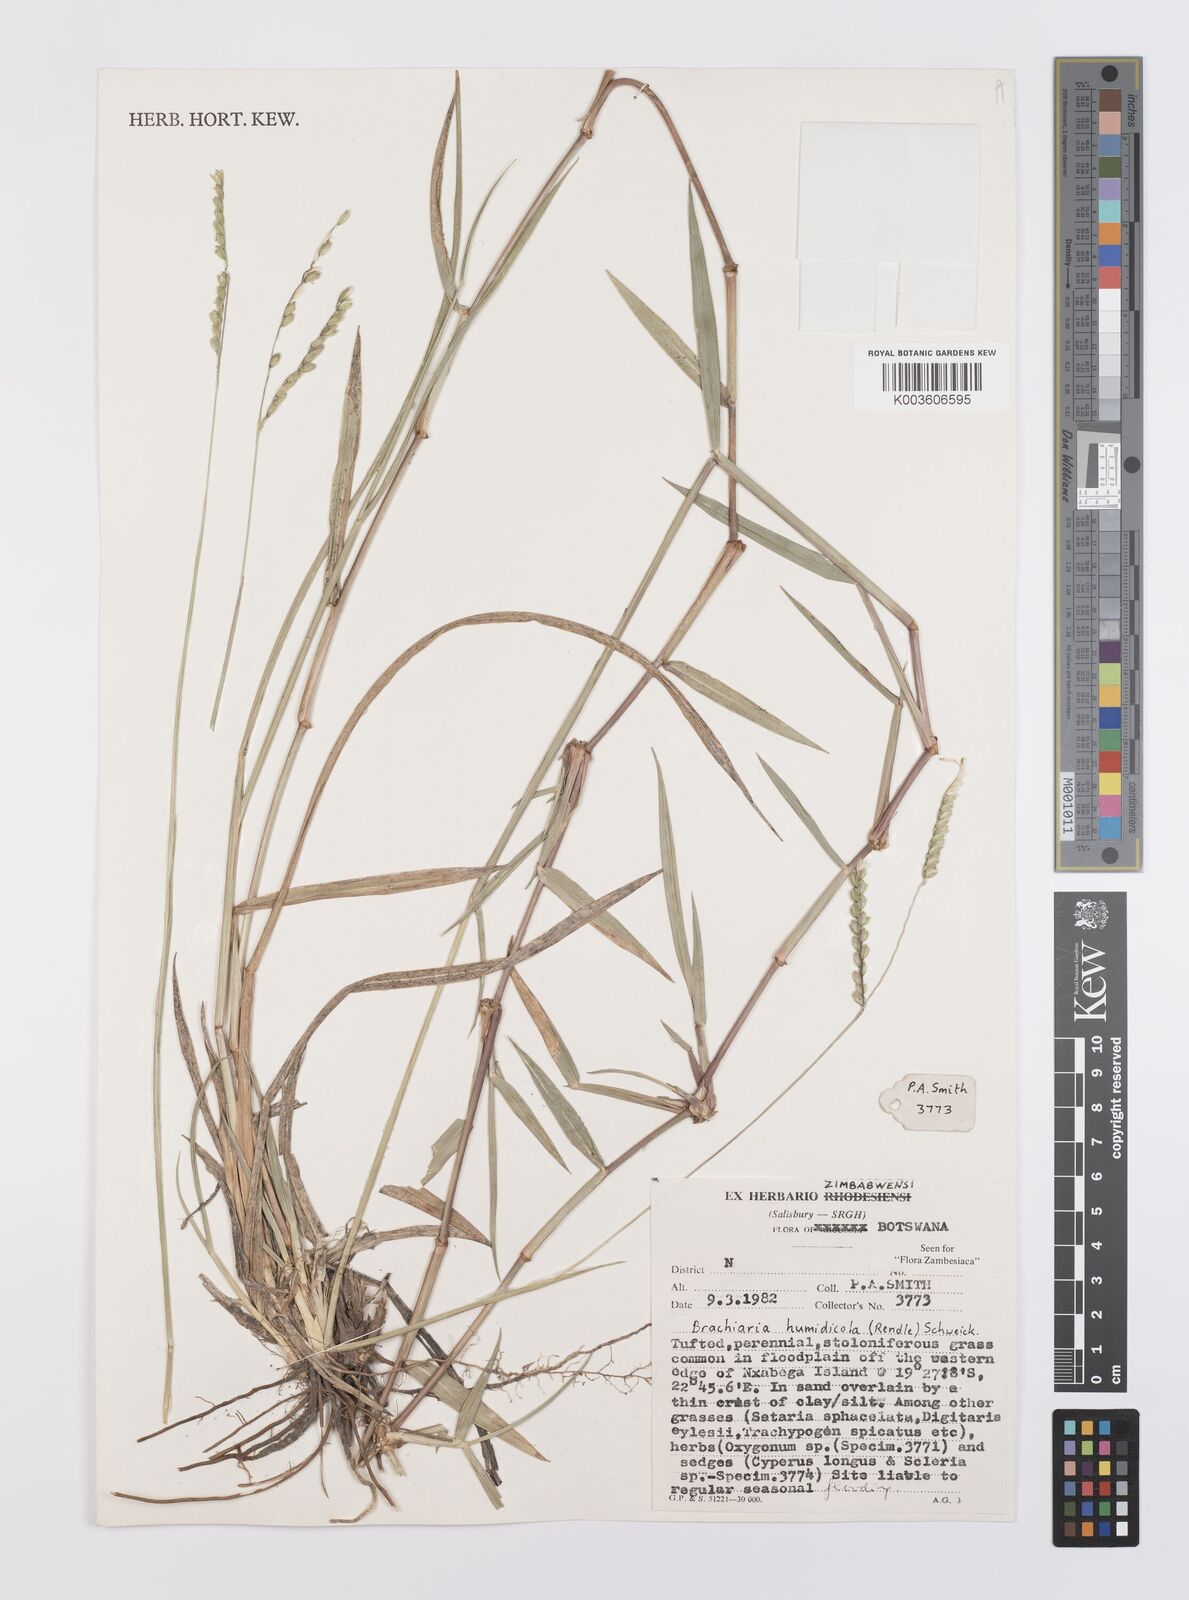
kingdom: Plantae
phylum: Tracheophyta
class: Liliopsida
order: Poales
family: Poaceae
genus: Urochloa
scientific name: Urochloa dictyoneura
